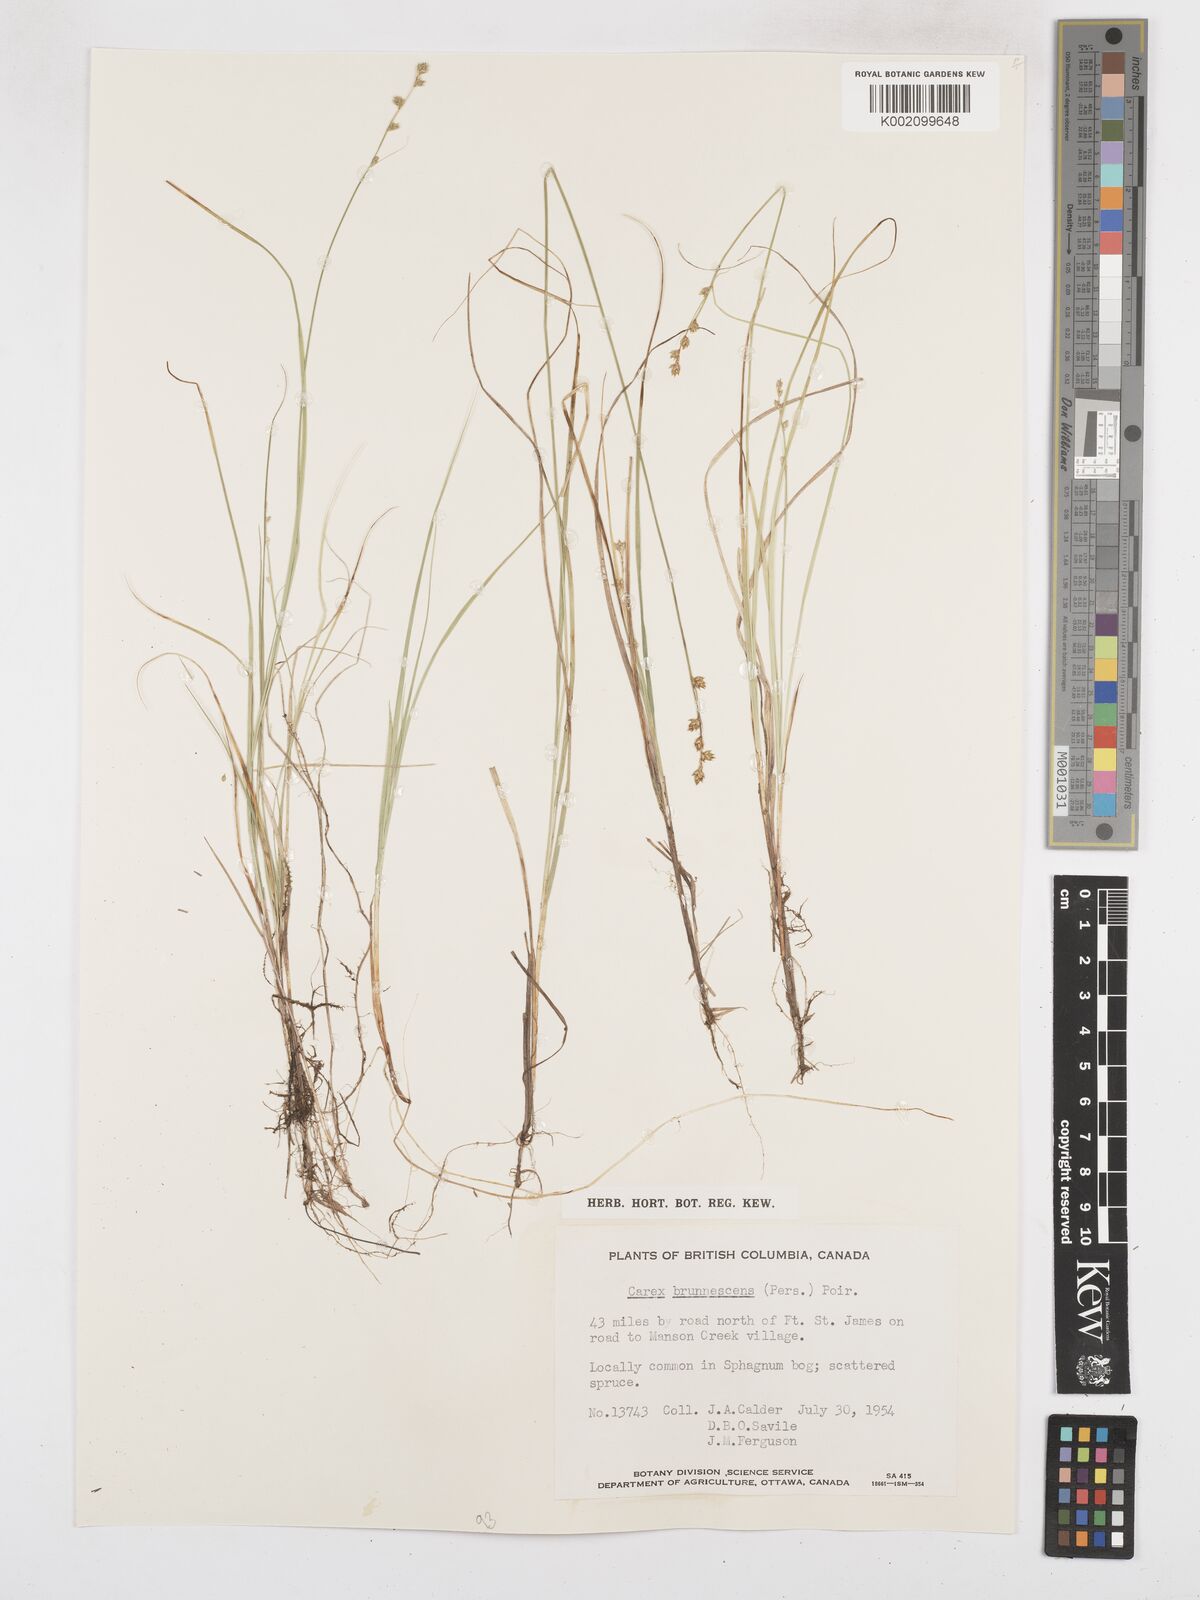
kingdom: Plantae
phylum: Tracheophyta
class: Liliopsida
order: Poales
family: Cyperaceae
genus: Carex
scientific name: Carex brunnescens
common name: Brown sedge
